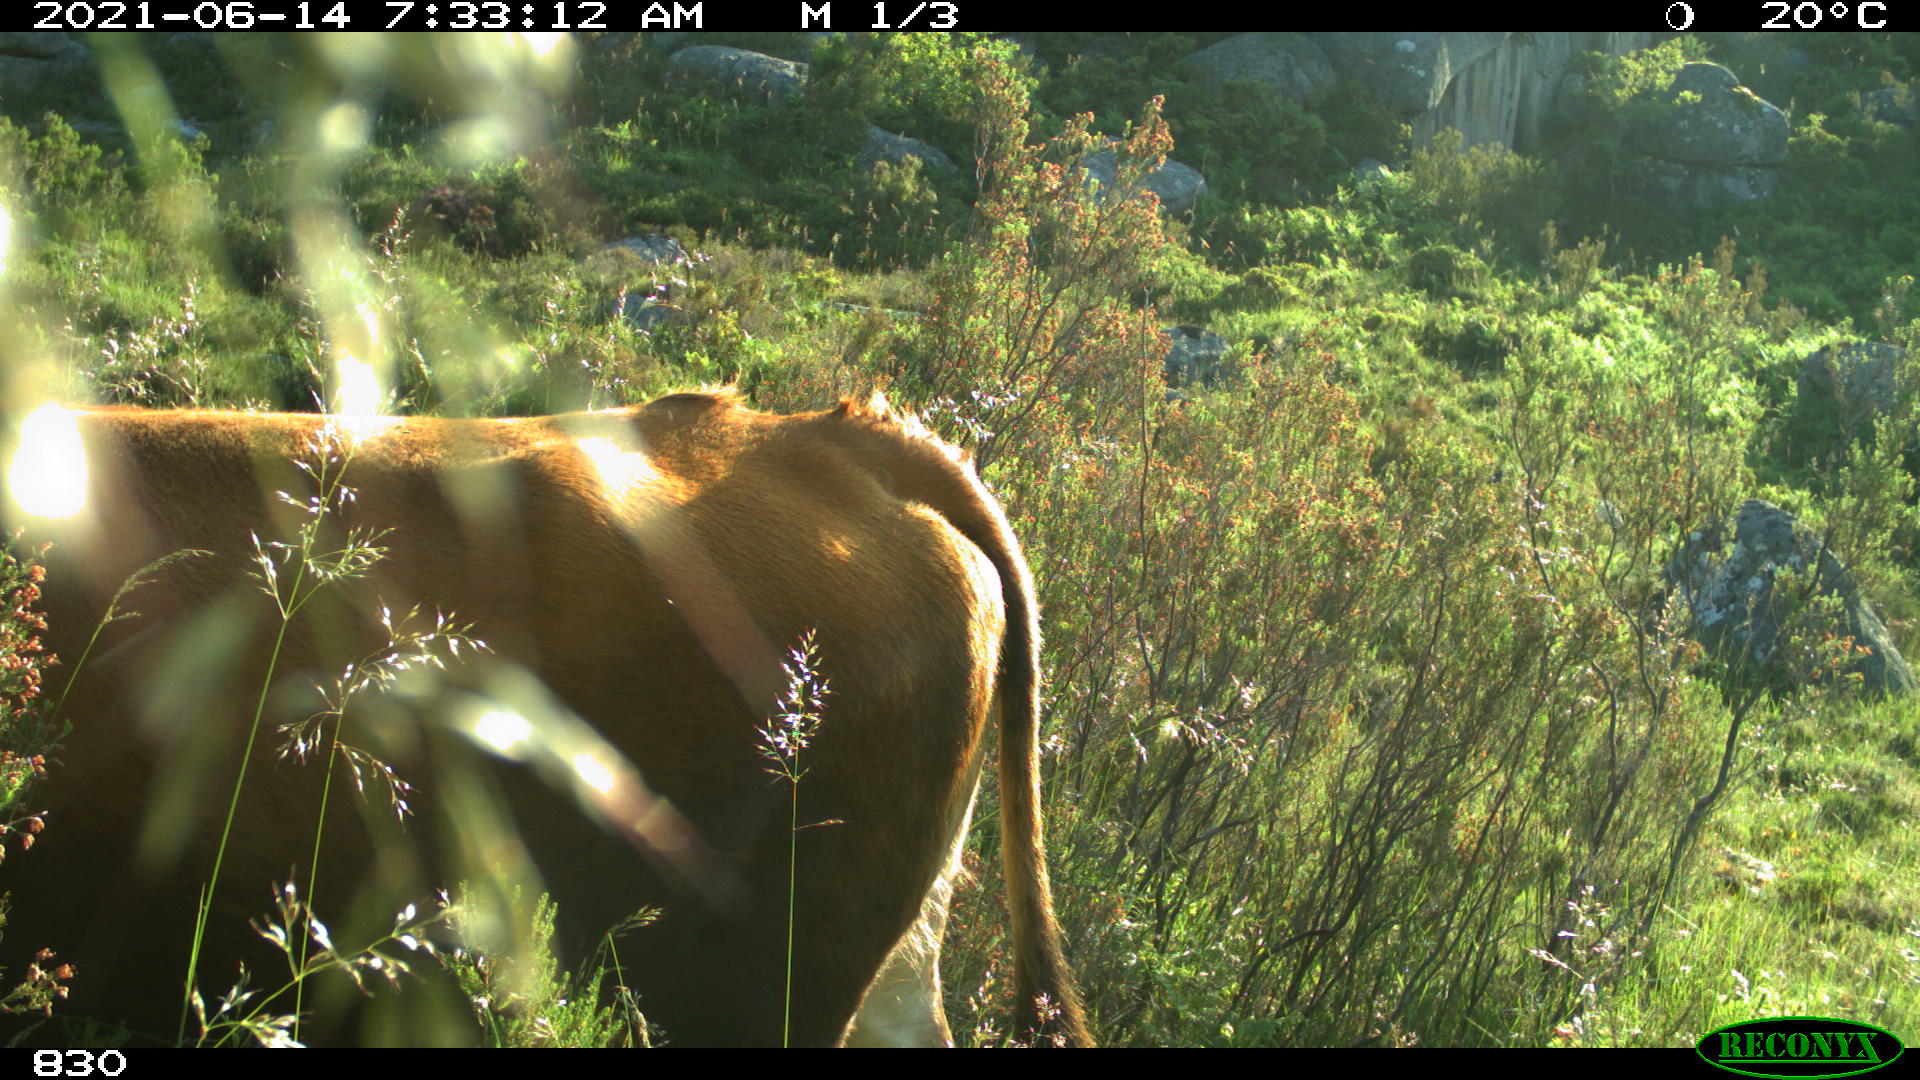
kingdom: Animalia
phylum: Chordata
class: Mammalia
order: Artiodactyla
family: Bovidae
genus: Bos
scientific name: Bos taurus
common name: Domesticated cattle
